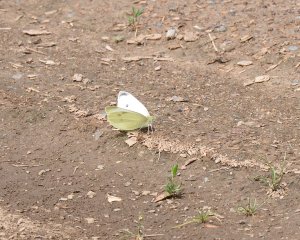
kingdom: Animalia
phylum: Arthropoda
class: Insecta
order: Lepidoptera
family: Pieridae
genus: Pieris
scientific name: Pieris rapae
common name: Cabbage White
